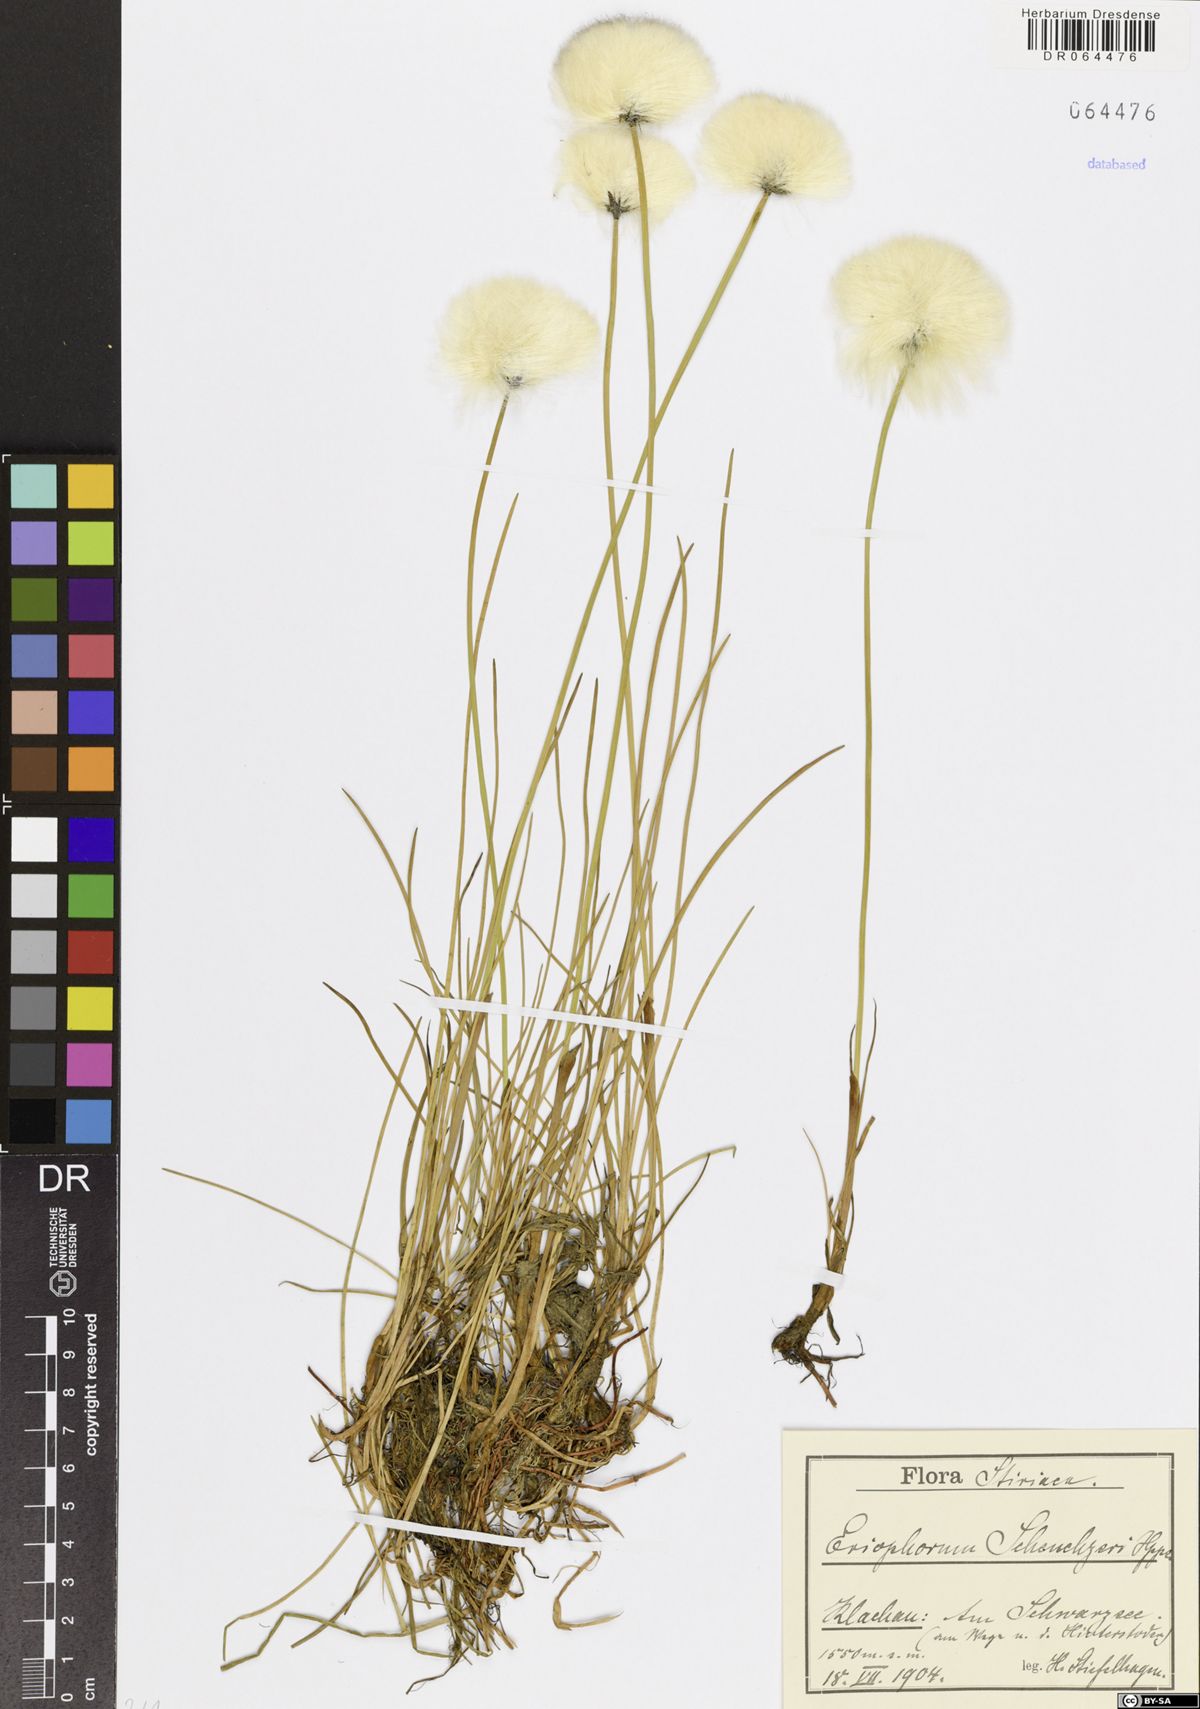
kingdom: Plantae
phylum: Tracheophyta
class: Liliopsida
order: Poales
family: Cyperaceae
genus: Eriophorum
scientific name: Eriophorum scheuchzeri
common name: Scheuchzer's cottongrass
